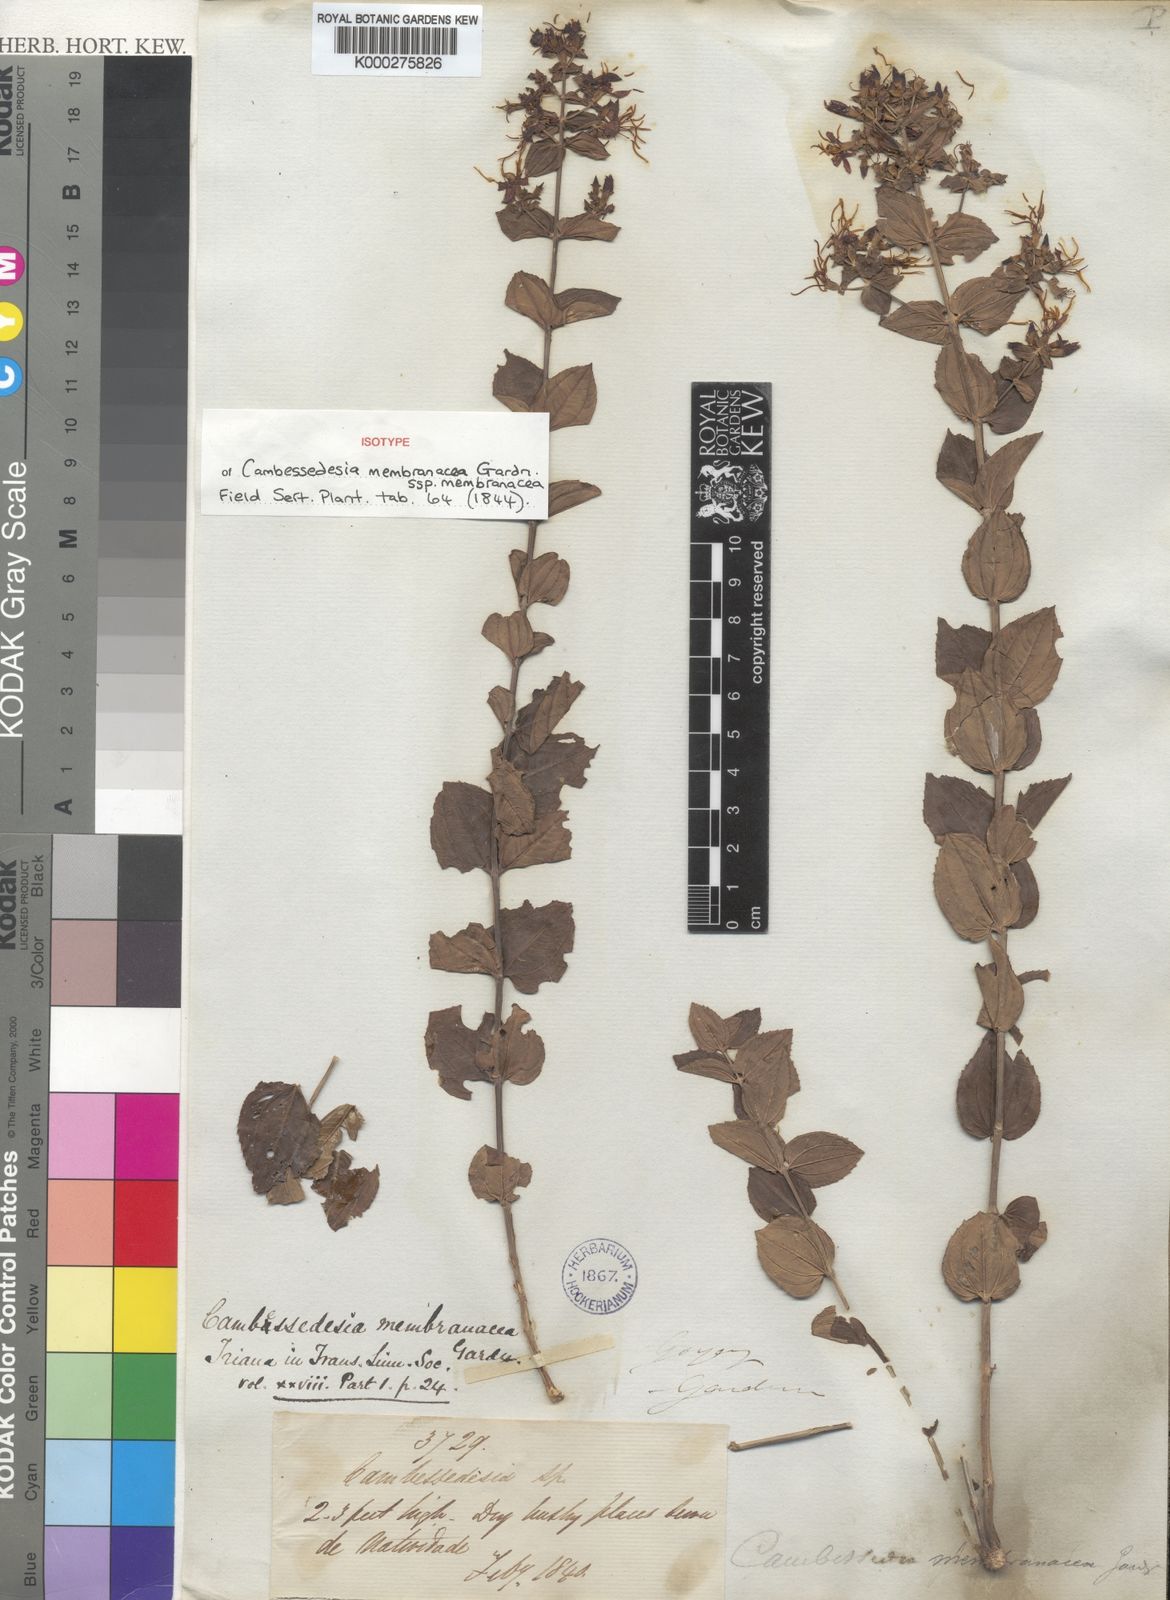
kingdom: Plantae
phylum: Tracheophyta
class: Magnoliopsida
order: Myrtales
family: Melastomataceae
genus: Cambessedesia
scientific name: Cambessedesia membranacea
